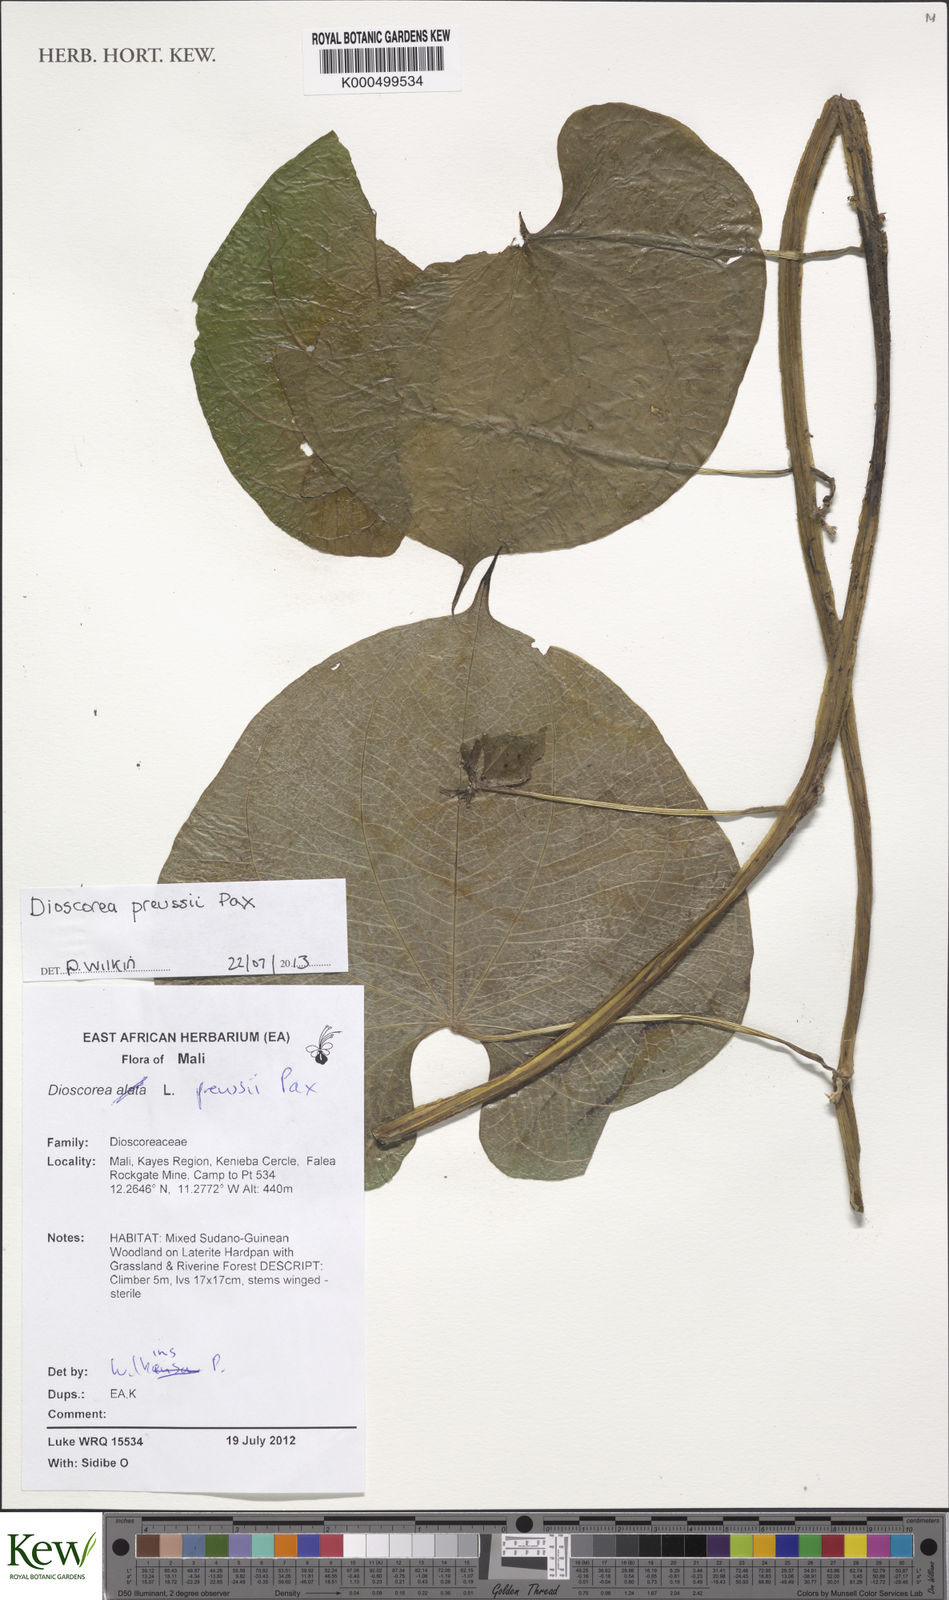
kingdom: Plantae
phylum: Tracheophyta
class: Liliopsida
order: Dioscoreales
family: Dioscoreaceae
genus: Dioscorea
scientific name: Dioscorea preussii
